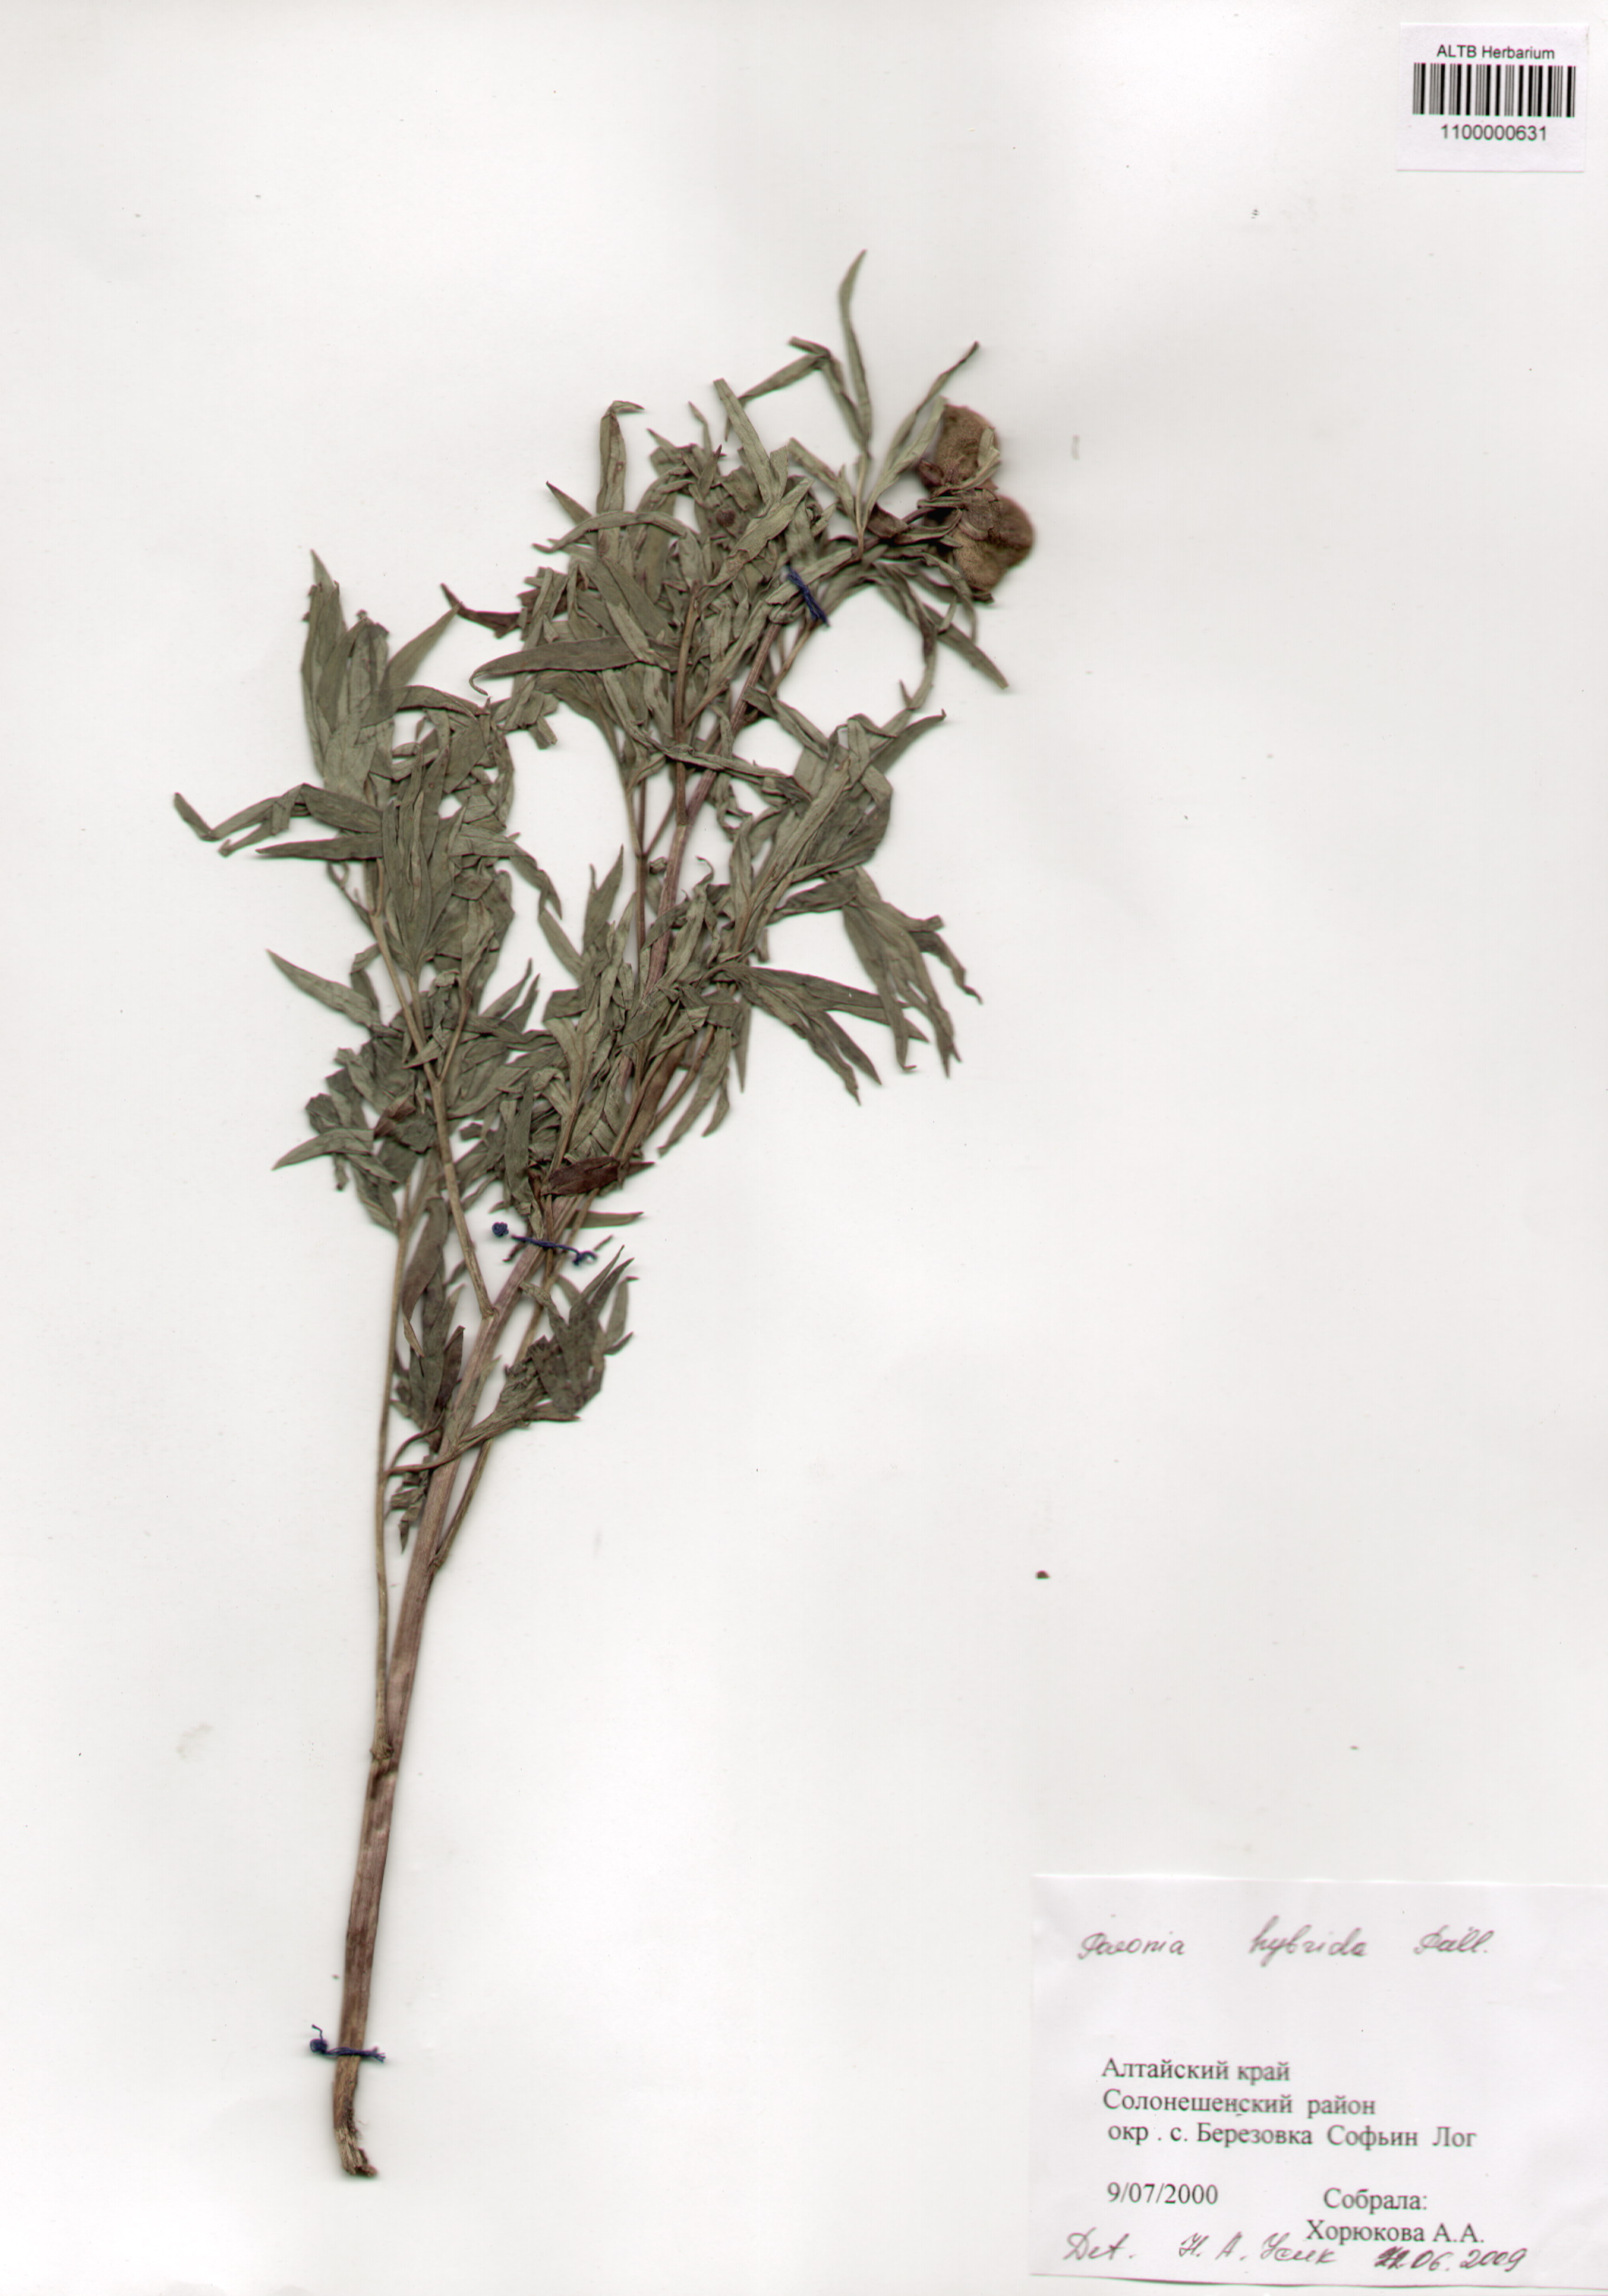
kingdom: Plantae
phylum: Tracheophyta
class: Magnoliopsida
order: Saxifragales
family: Paeoniaceae
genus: Paeonia
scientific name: Paeonia
